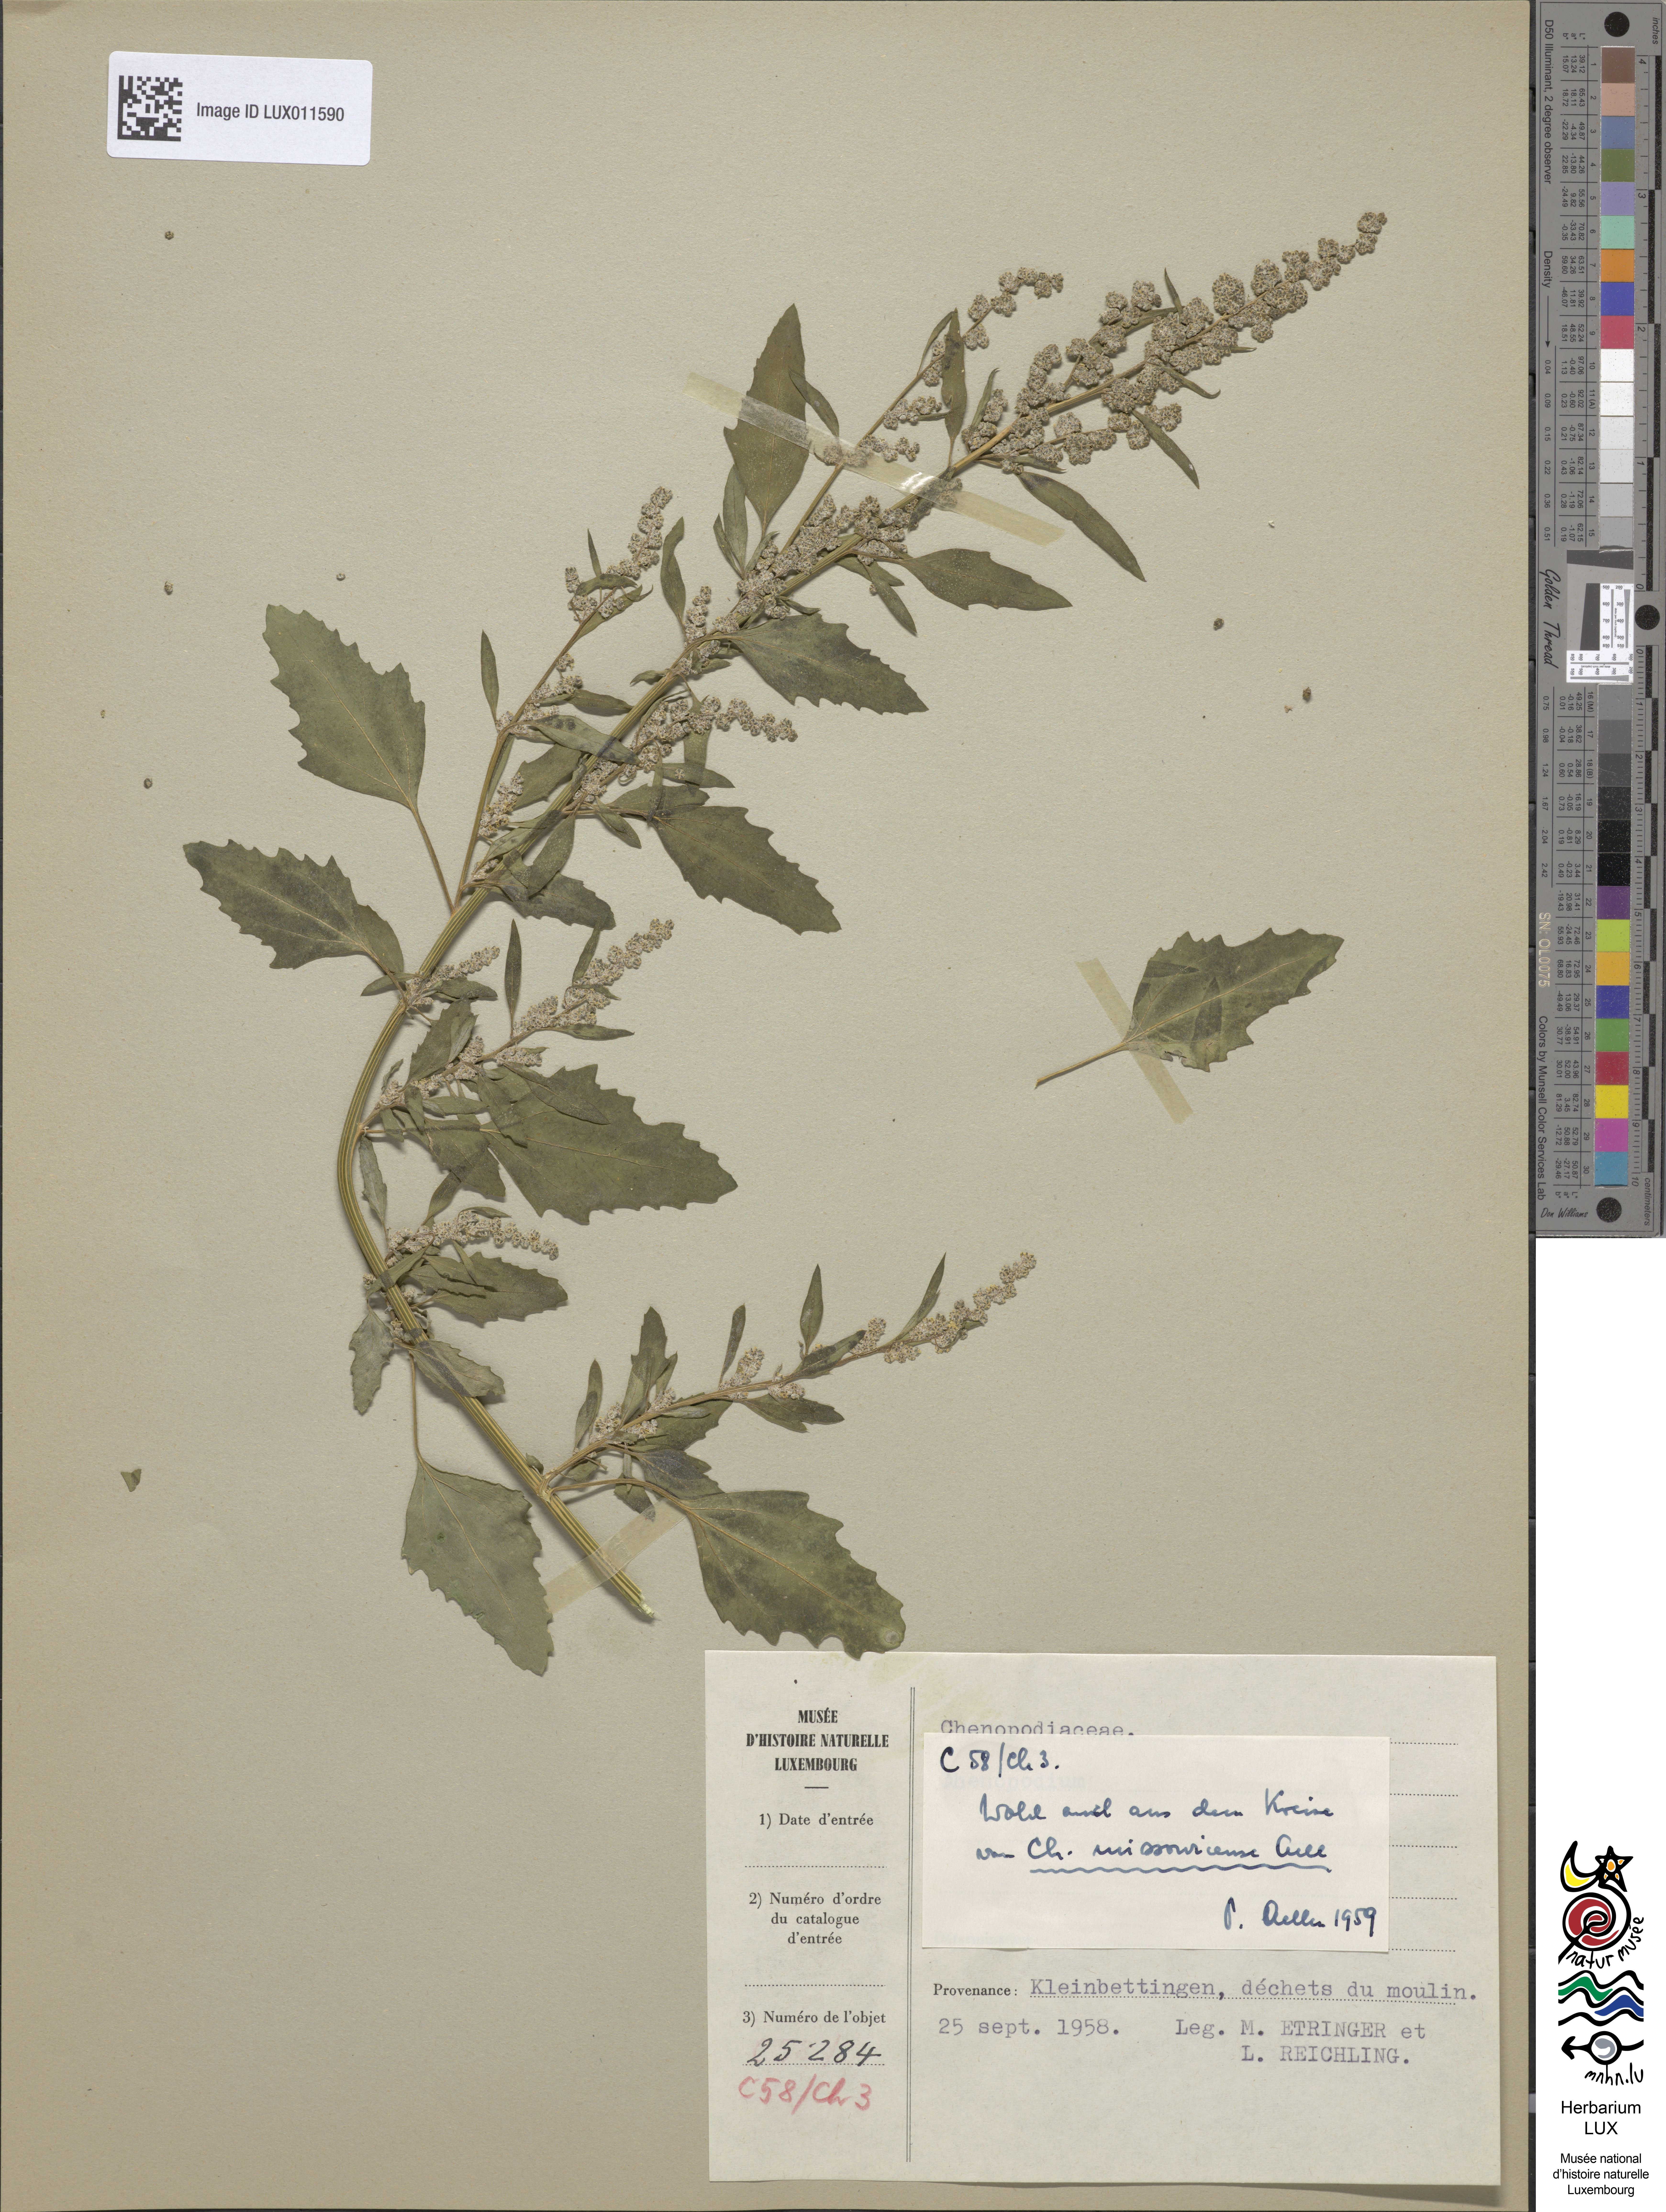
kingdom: Plantae
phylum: Tracheophyta
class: Magnoliopsida
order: Caryophyllales
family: Amaranthaceae
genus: Chenopodium
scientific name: Chenopodium album
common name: Fat-hen
